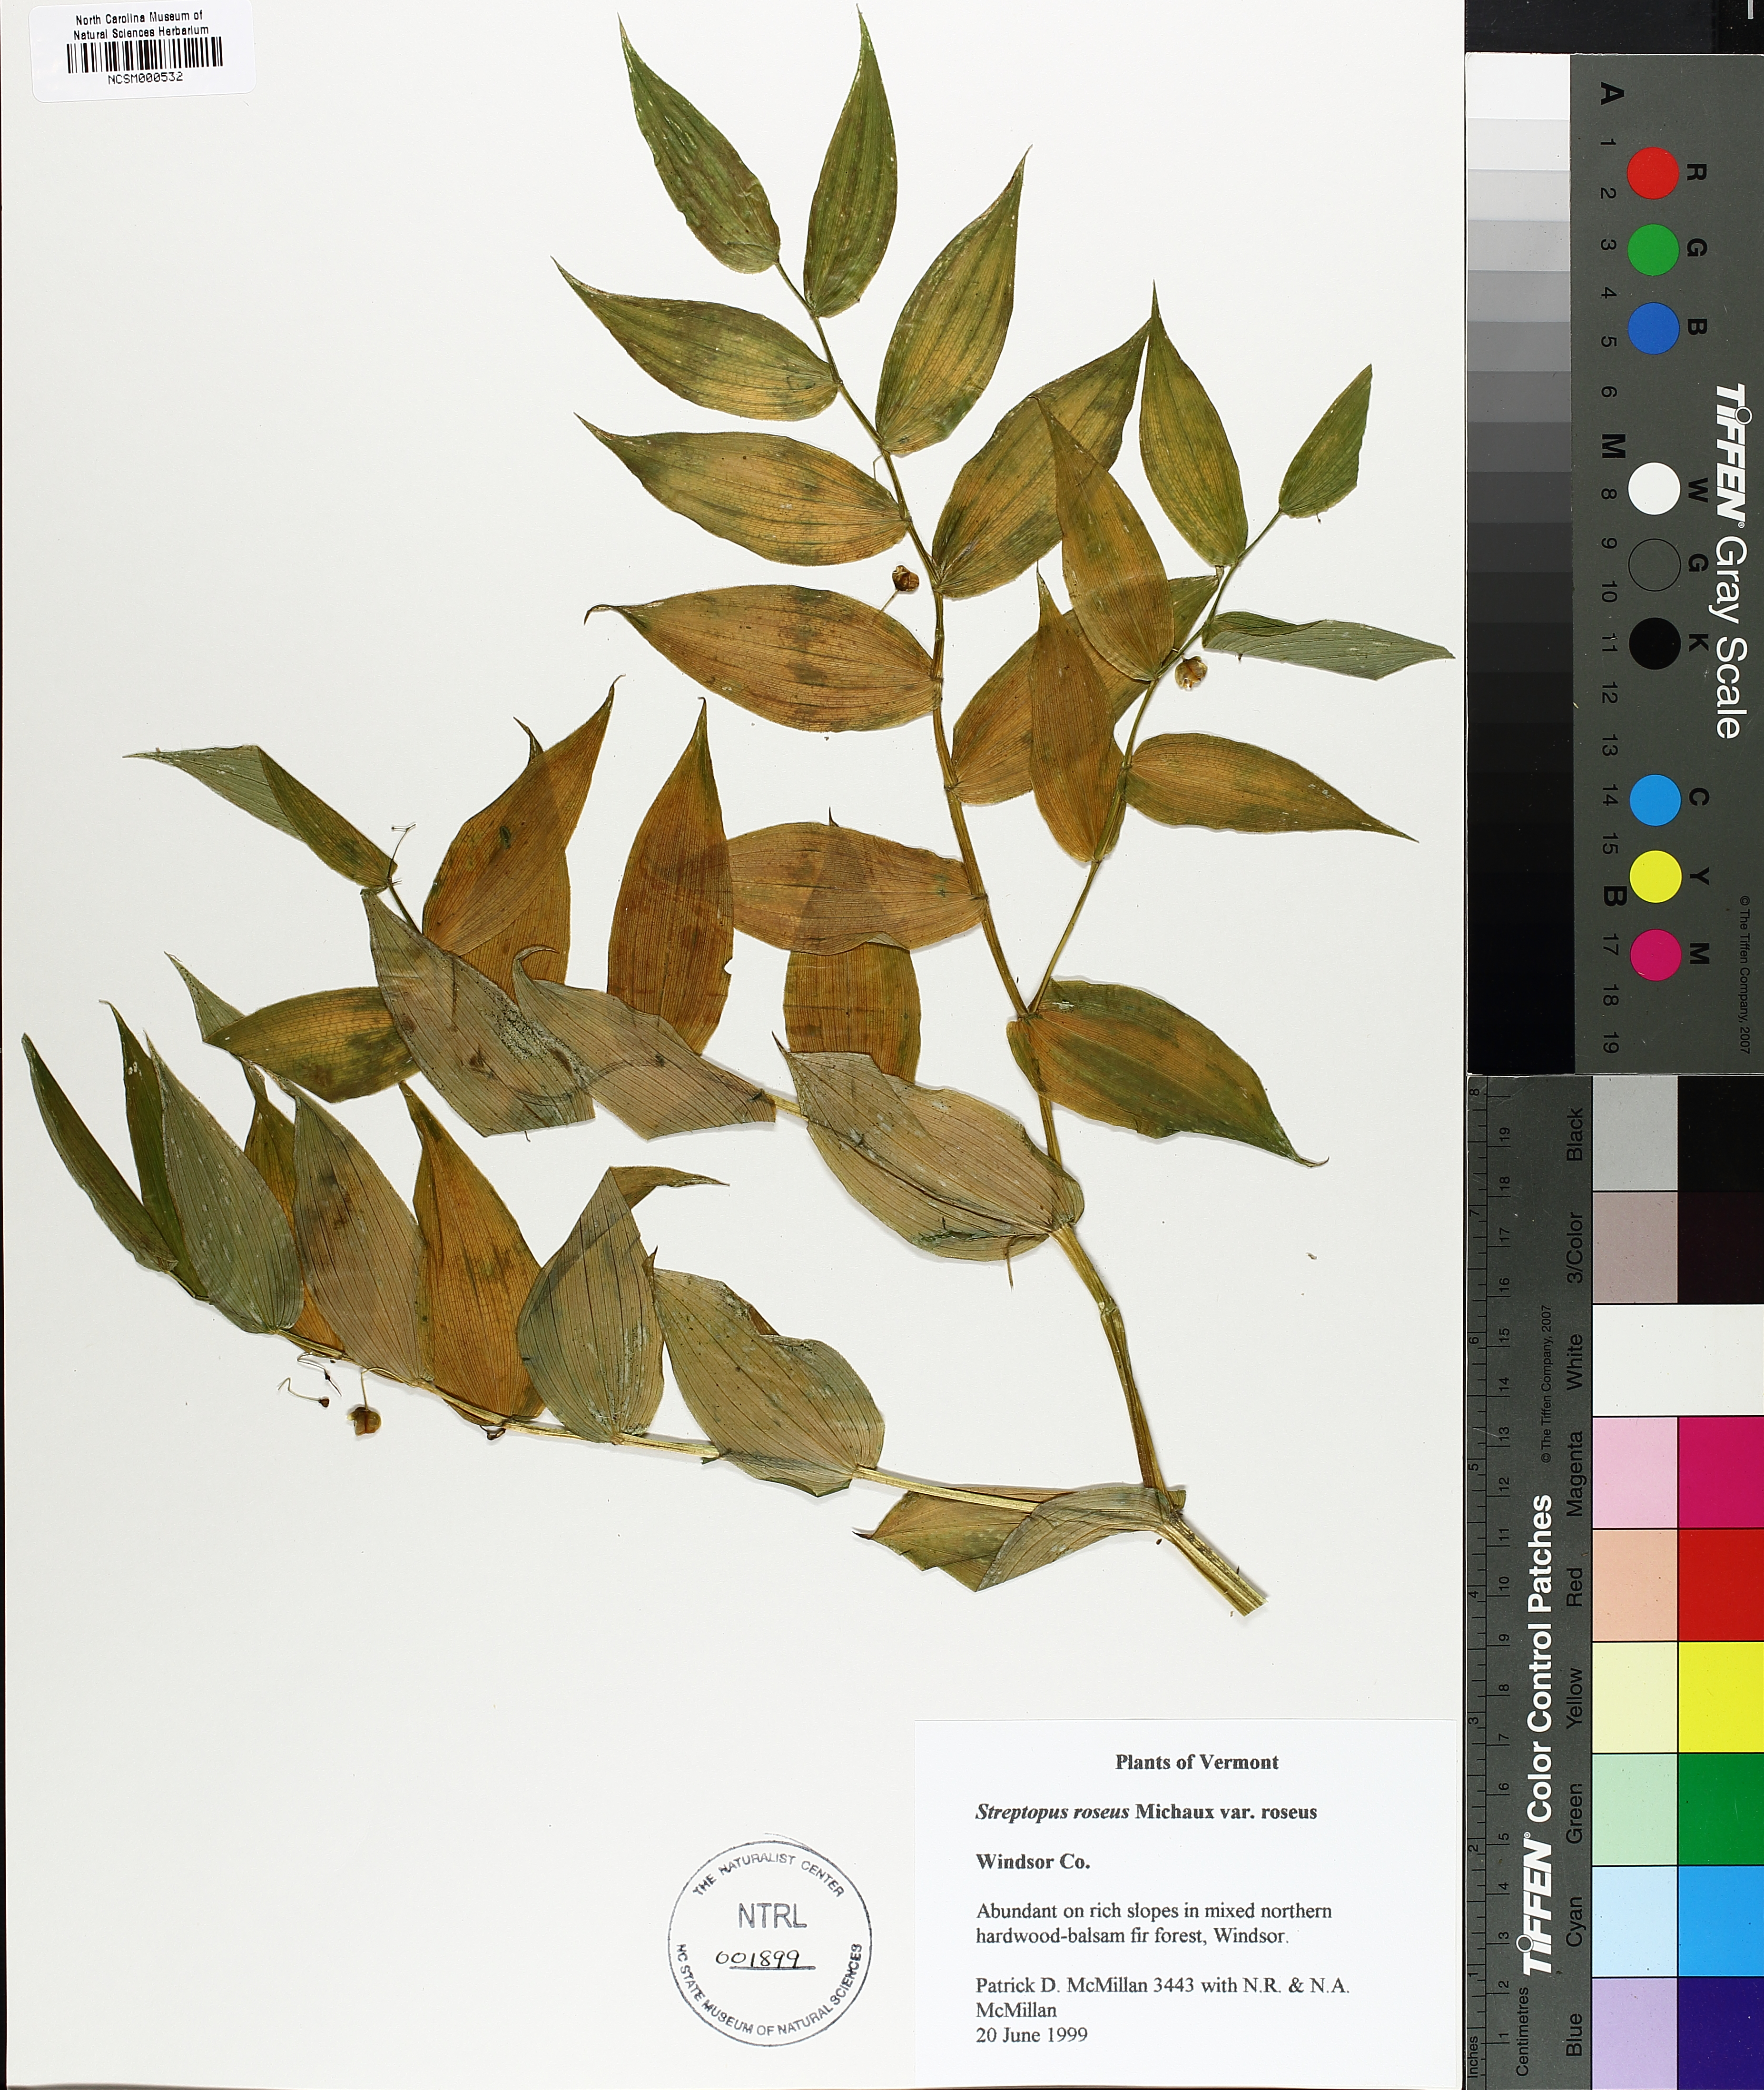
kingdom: Plantae
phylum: Tracheophyta
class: Liliopsida
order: Liliales
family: Liliaceae
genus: Streptopus
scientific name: Streptopus lanceolatus
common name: Rose mandarin
